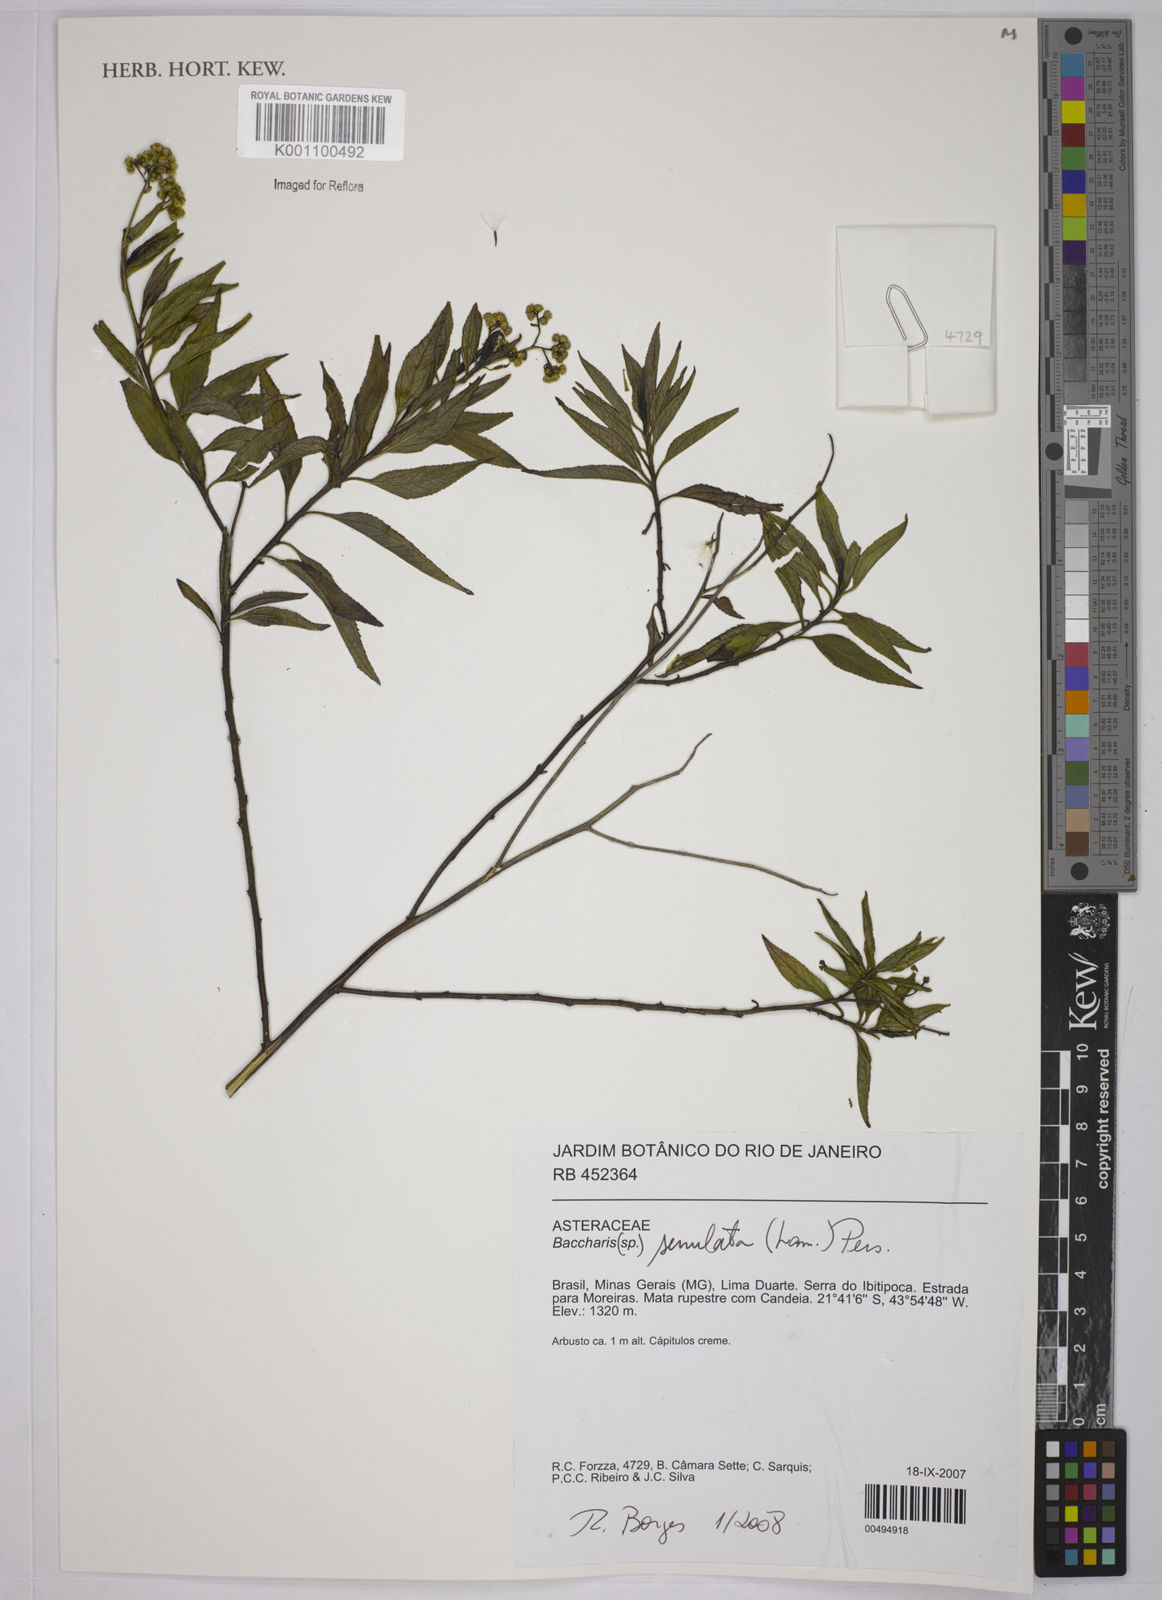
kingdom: Plantae
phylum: Tracheophyta
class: Magnoliopsida
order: Asterales
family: Asteraceae
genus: Baccharis
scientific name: Baccharis serrulata
